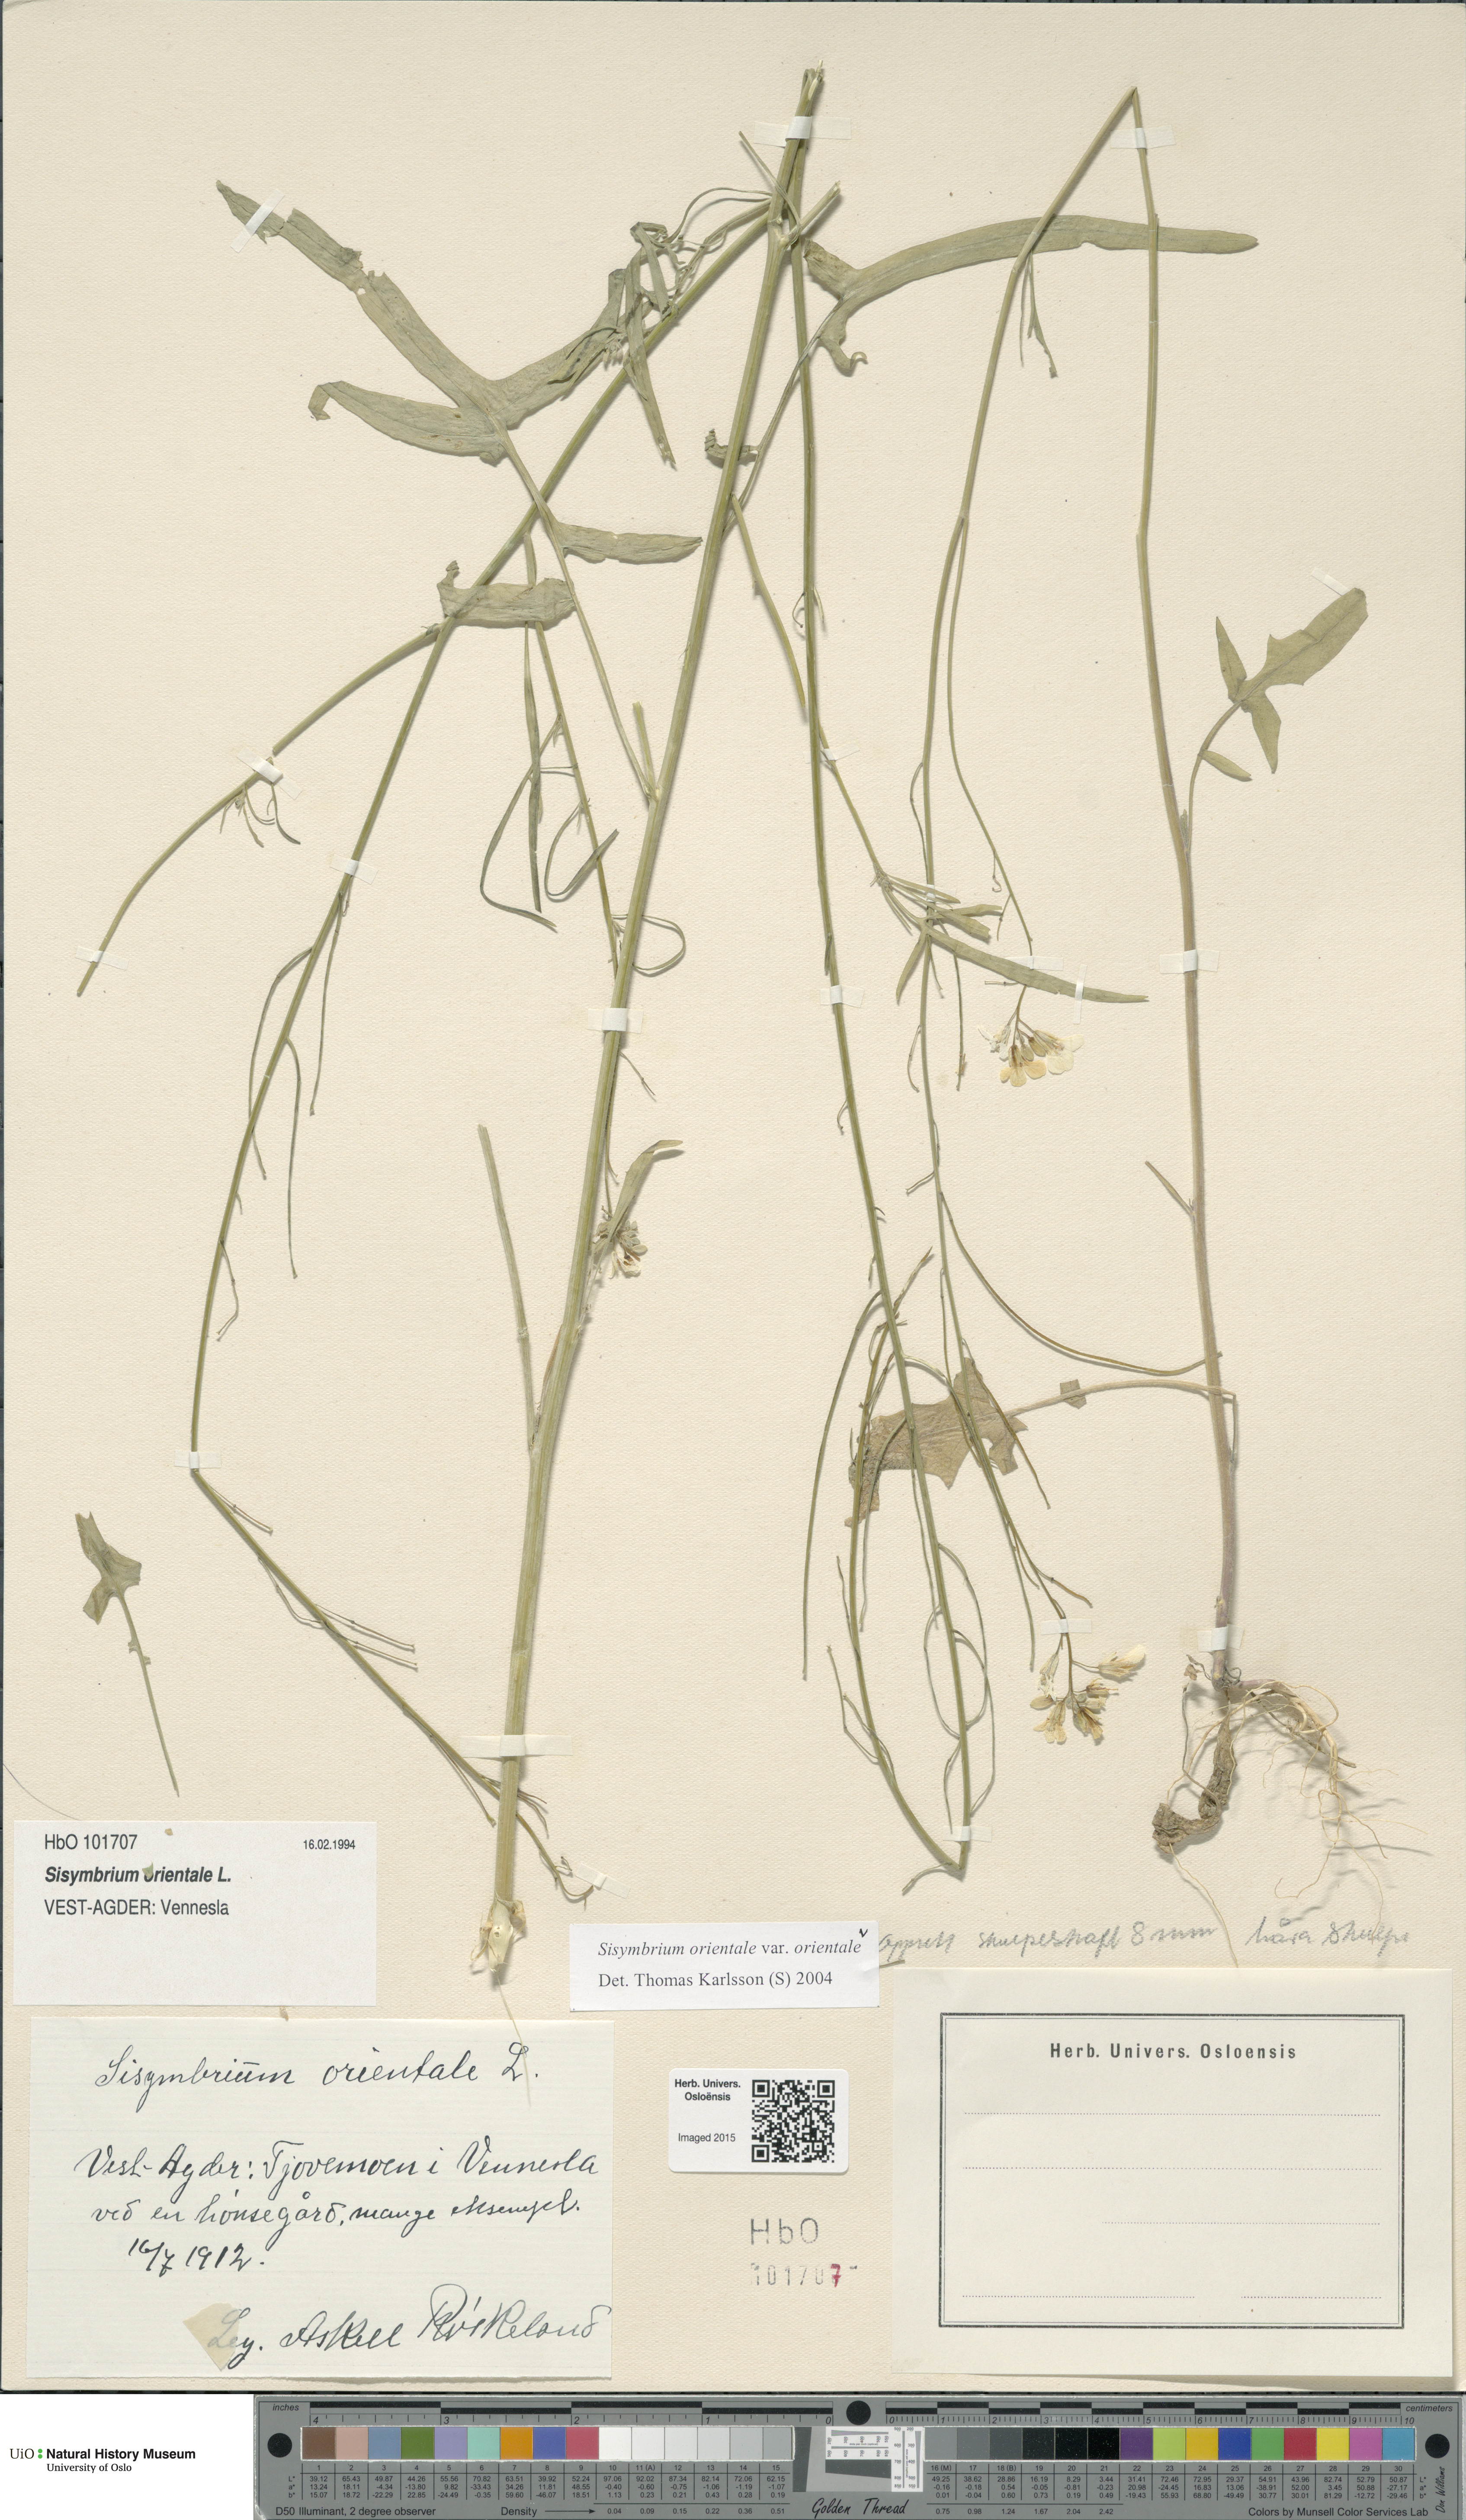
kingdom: Plantae
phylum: Tracheophyta
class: Magnoliopsida
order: Brassicales
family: Brassicaceae
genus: Sisymbrium
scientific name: Sisymbrium orientale
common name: Eastern rocket
